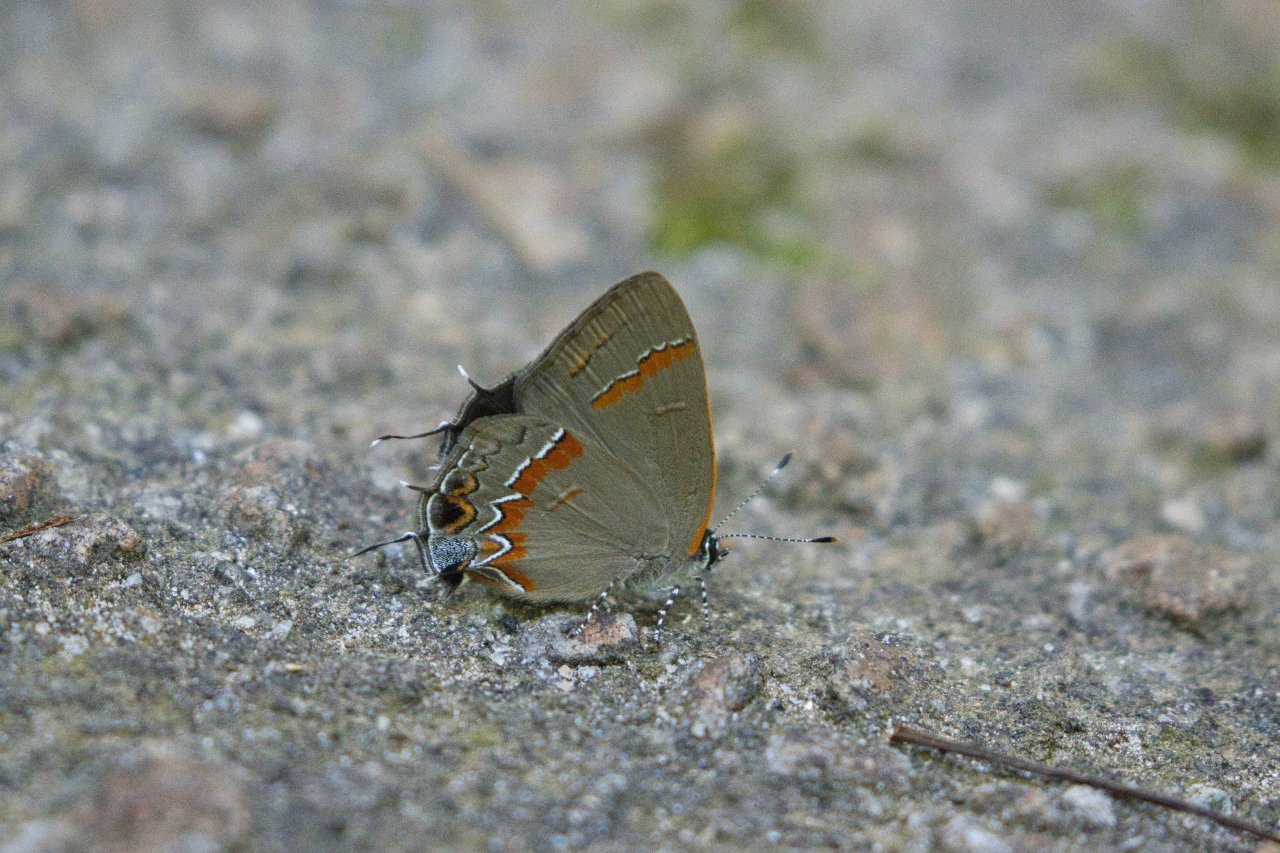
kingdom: Animalia
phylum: Arthropoda
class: Insecta
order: Lepidoptera
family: Lycaenidae
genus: Calycopis
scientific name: Calycopis cecrops
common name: Red-banded Hairstreak
